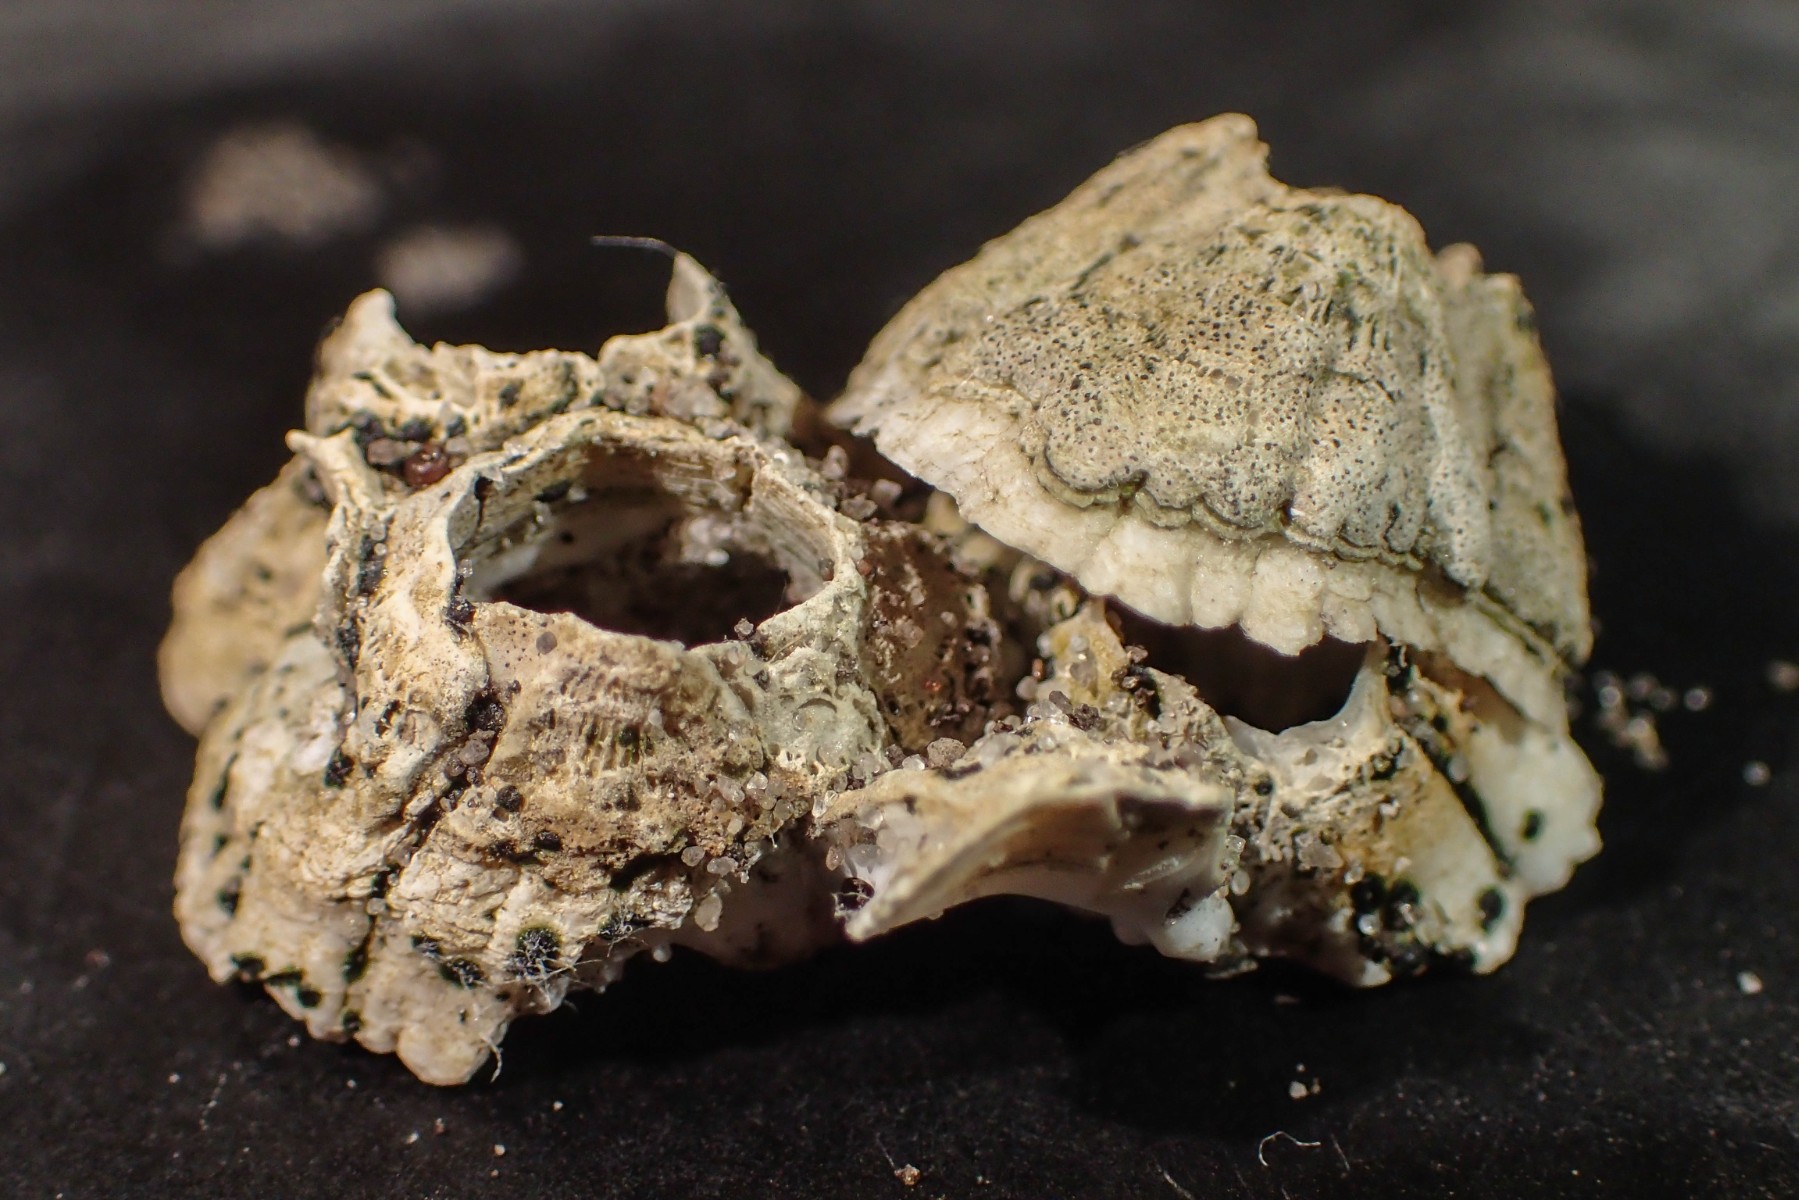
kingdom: Fungi
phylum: Ascomycota
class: Dothideomycetes
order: Collemopsidiales
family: Xanthopyreniaceae
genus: Collemopsidium
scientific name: Collemopsidium foveolatum
